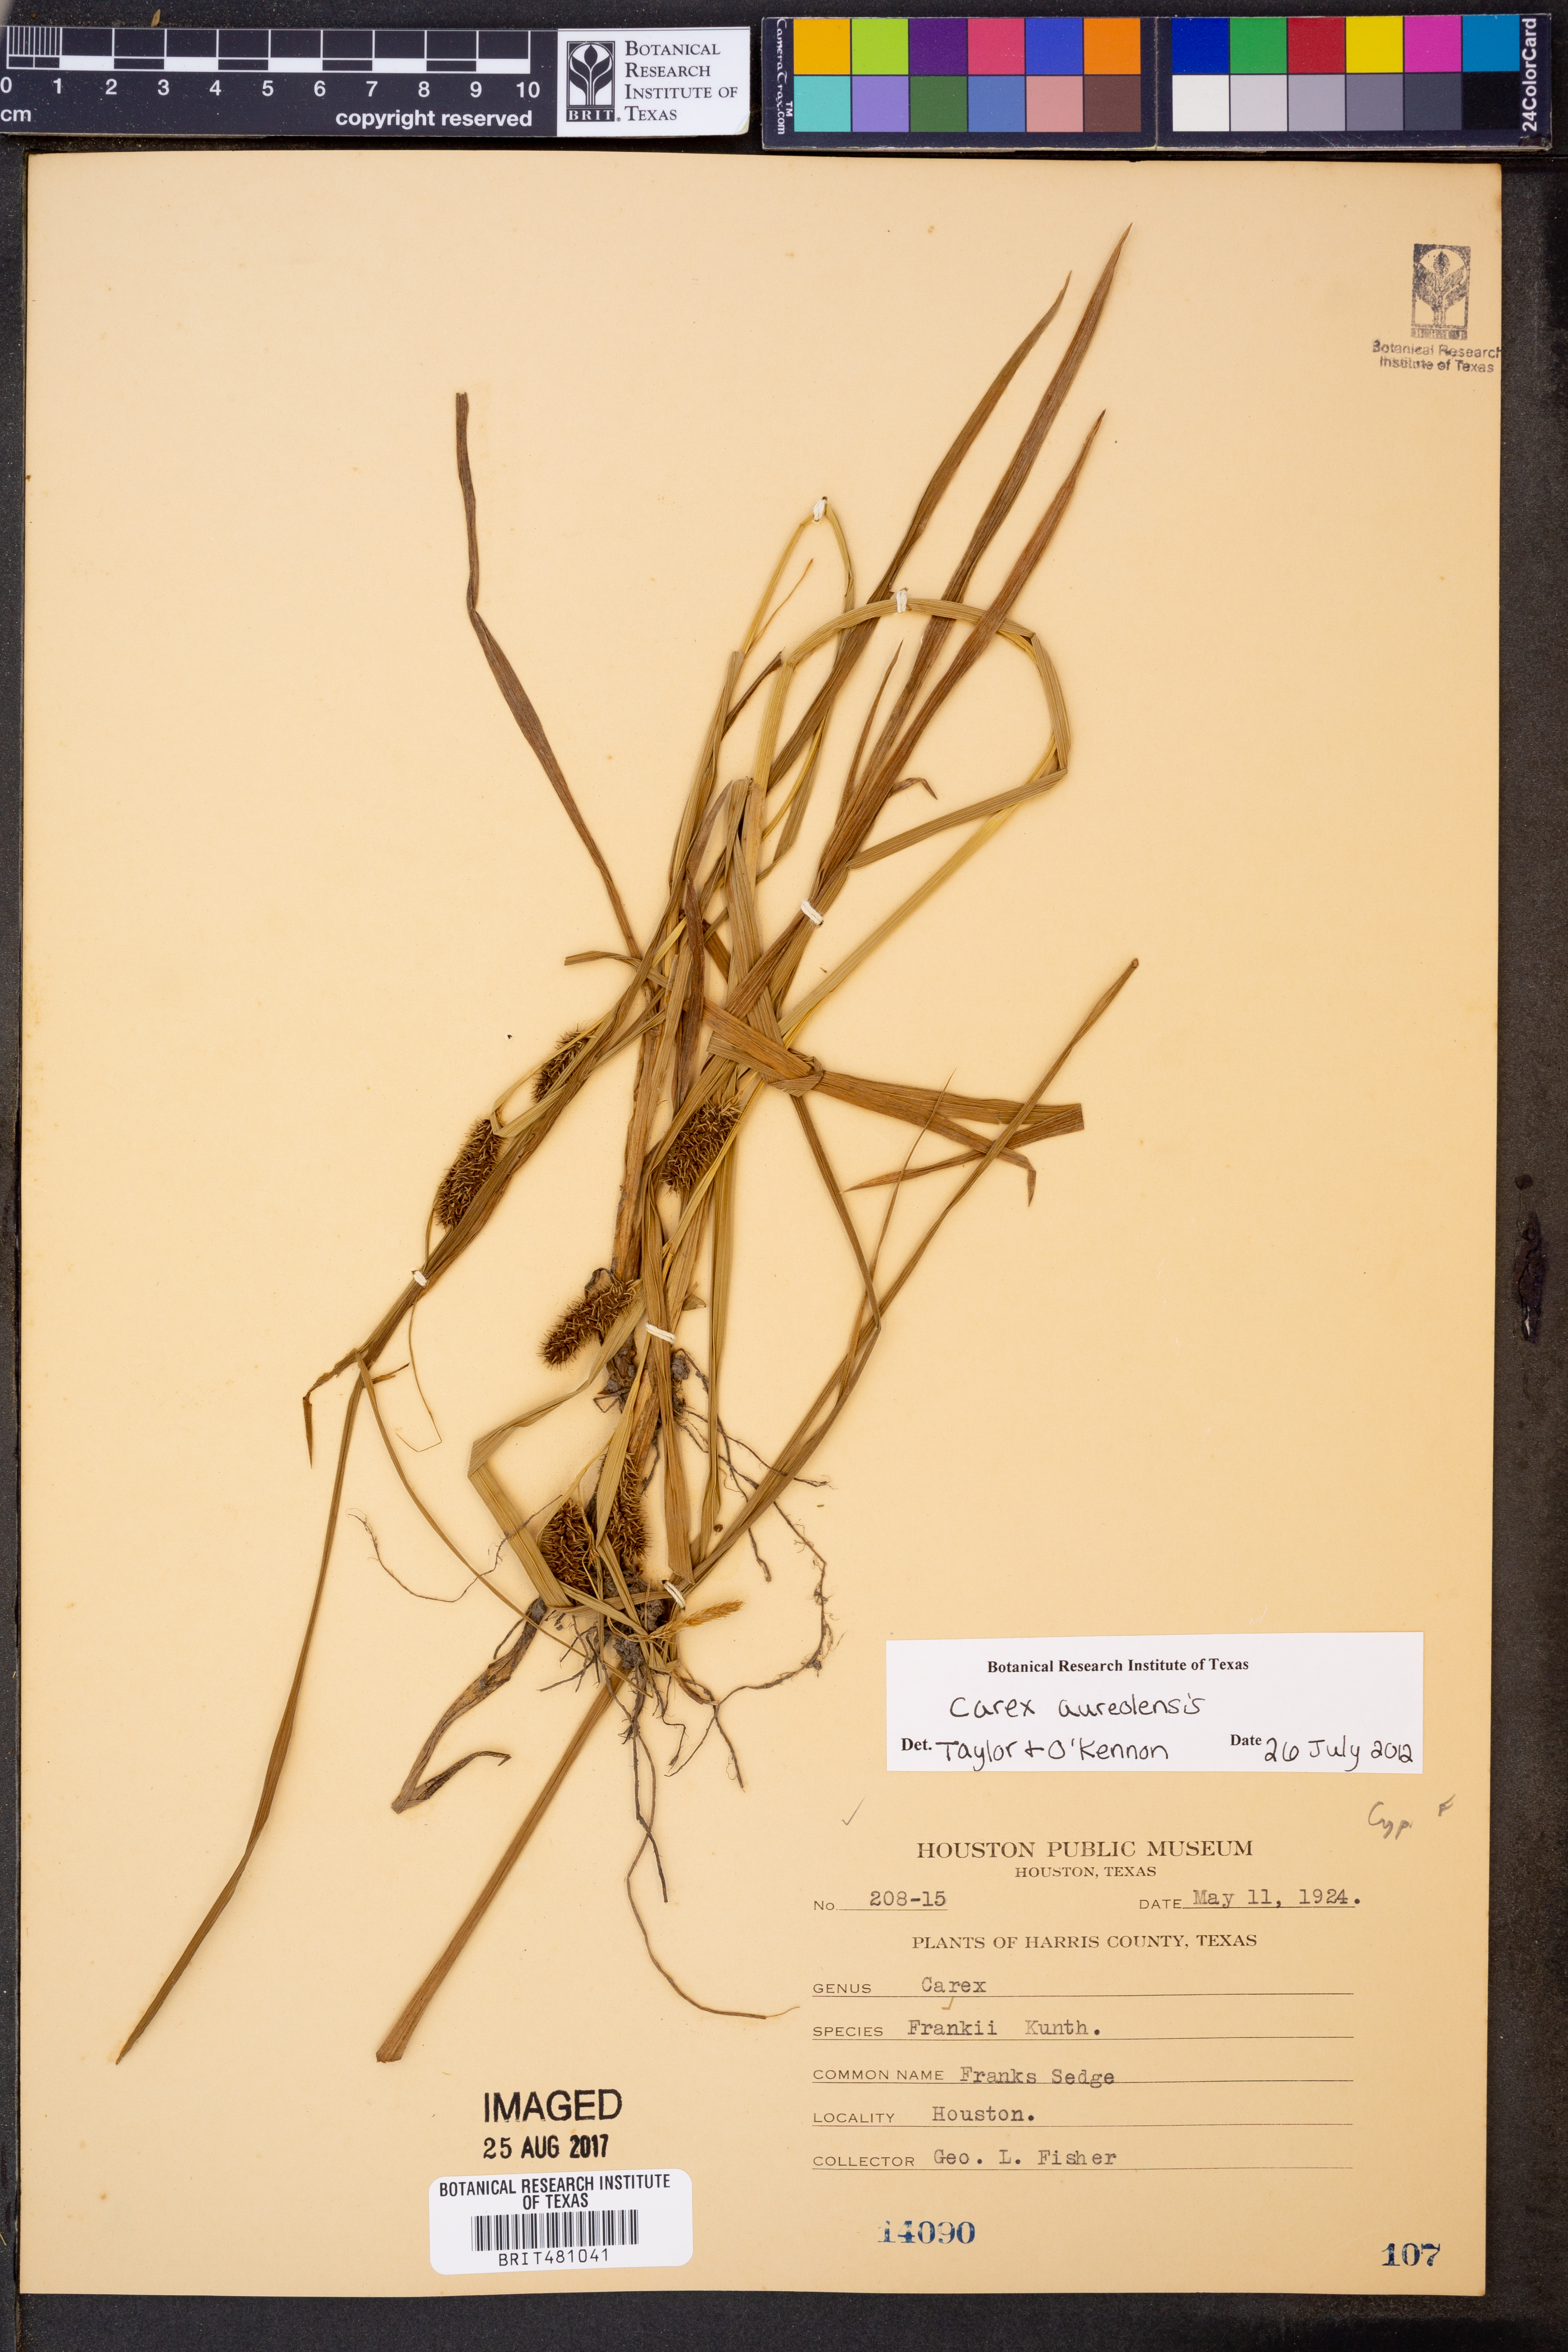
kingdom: Plantae
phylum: Tracheophyta
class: Liliopsida
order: Poales
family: Cyperaceae
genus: Carex
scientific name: Carex aureolensis
